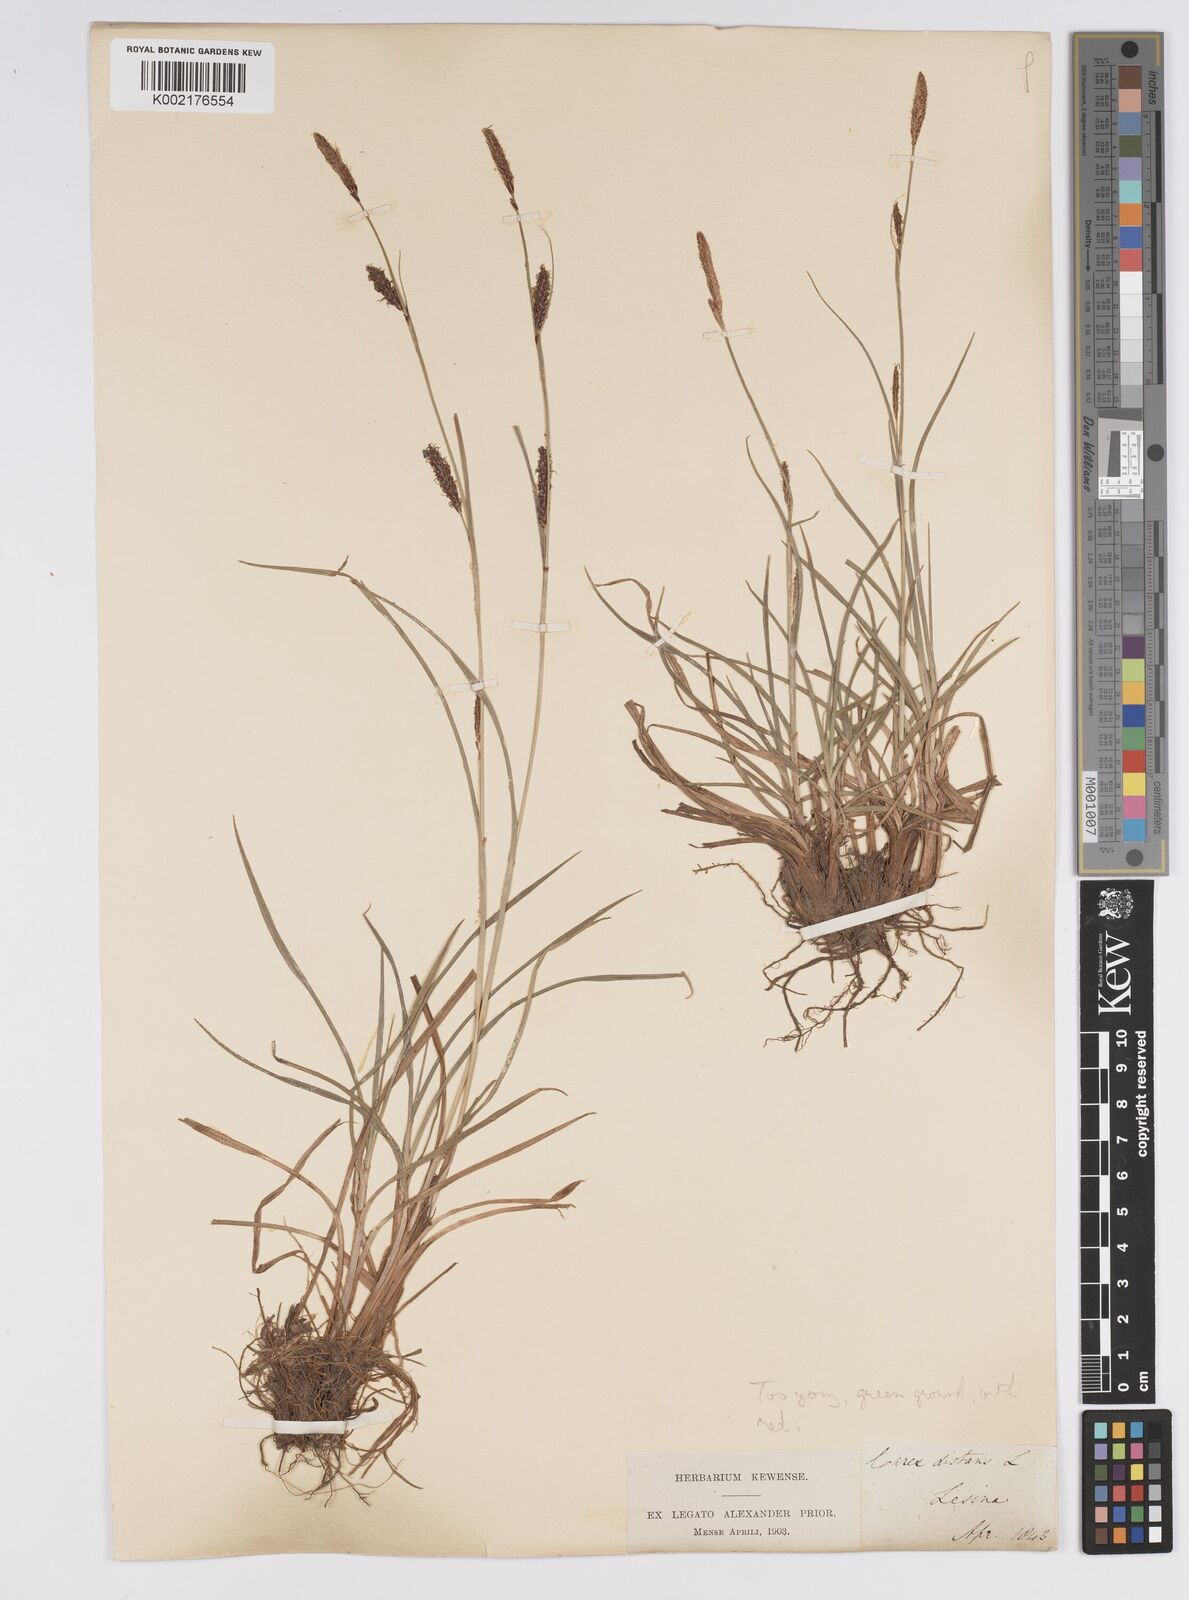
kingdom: Plantae
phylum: Tracheophyta
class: Liliopsida
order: Poales
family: Cyperaceae
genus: Carex
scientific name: Carex distans
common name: Distant sedge
